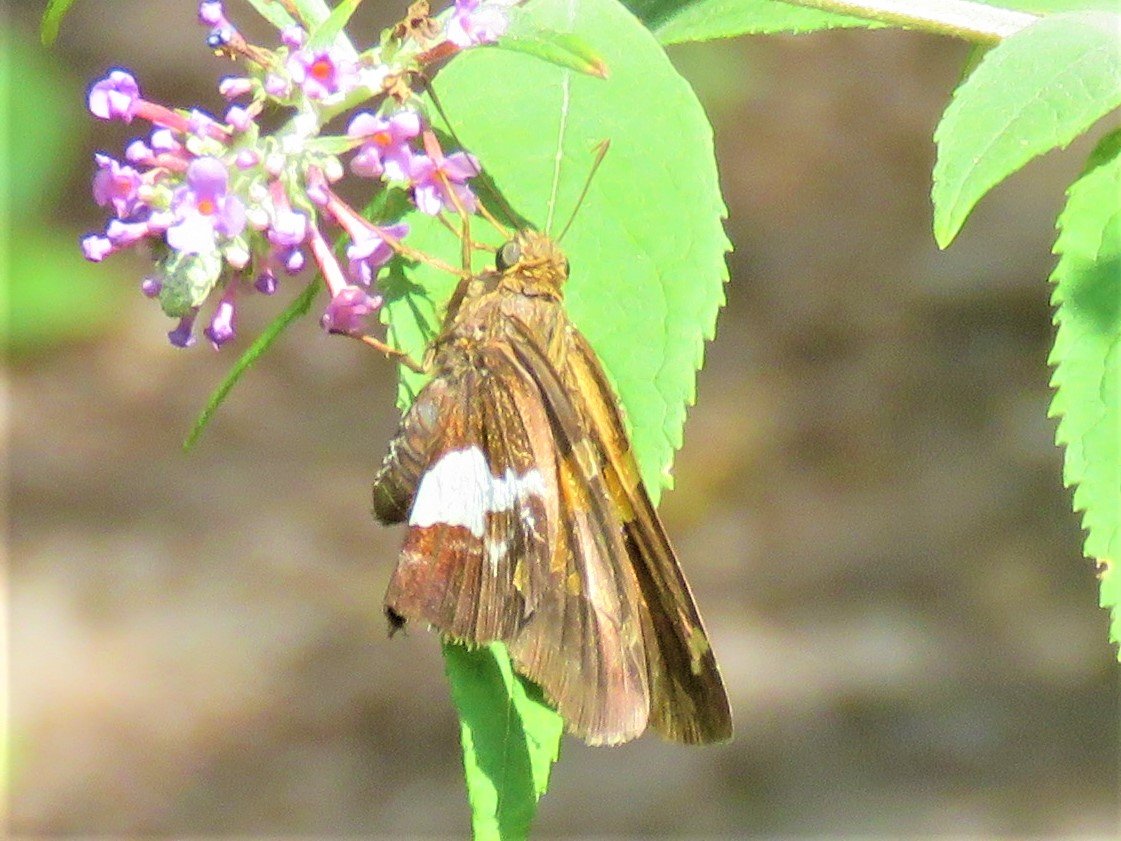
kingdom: Animalia
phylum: Arthropoda
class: Insecta
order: Lepidoptera
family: Hesperiidae
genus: Epargyreus
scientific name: Epargyreus clarus
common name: Silver-spotted Skipper
